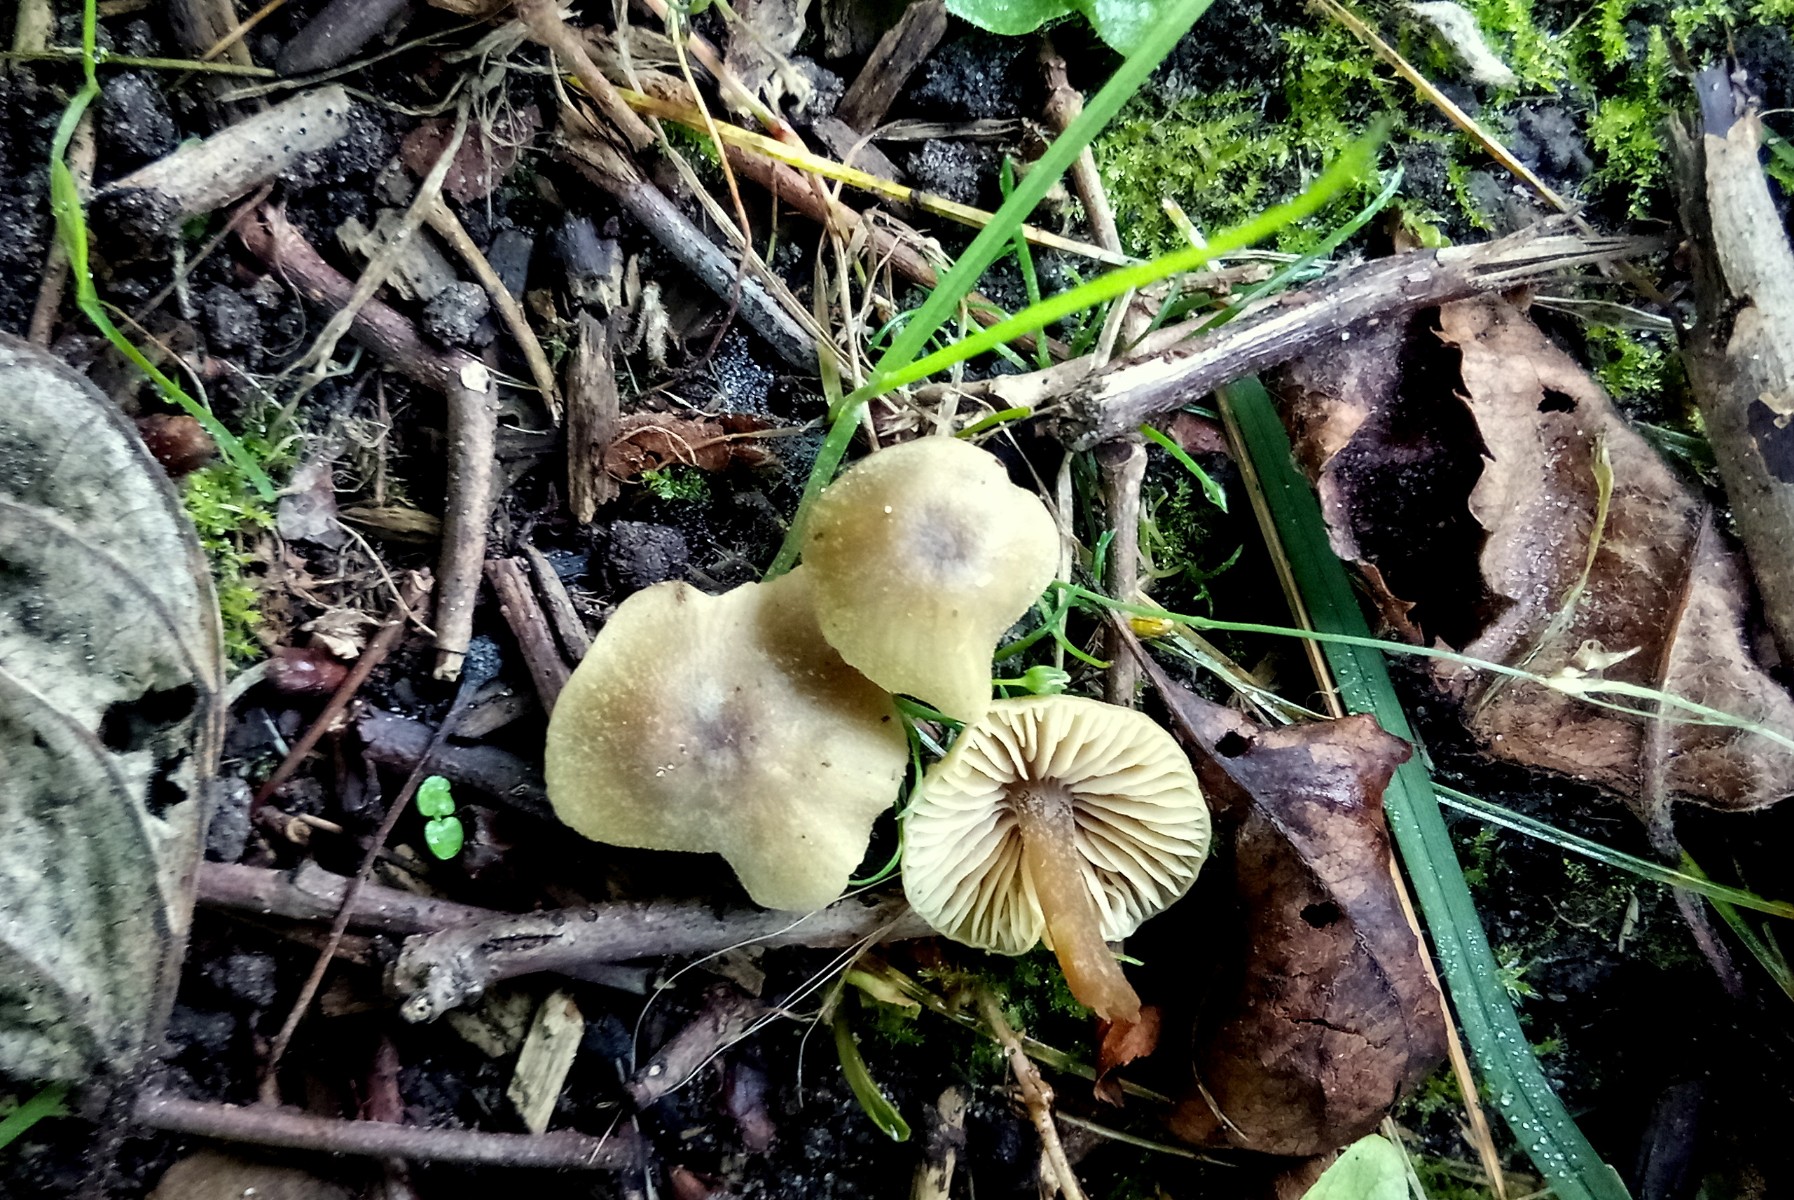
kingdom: Fungi
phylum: Basidiomycota
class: Agaricomycetes
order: Agaricales
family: Entolomataceae
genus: Entoloma
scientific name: Entoloma pleopodium
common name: duftende rødblad
